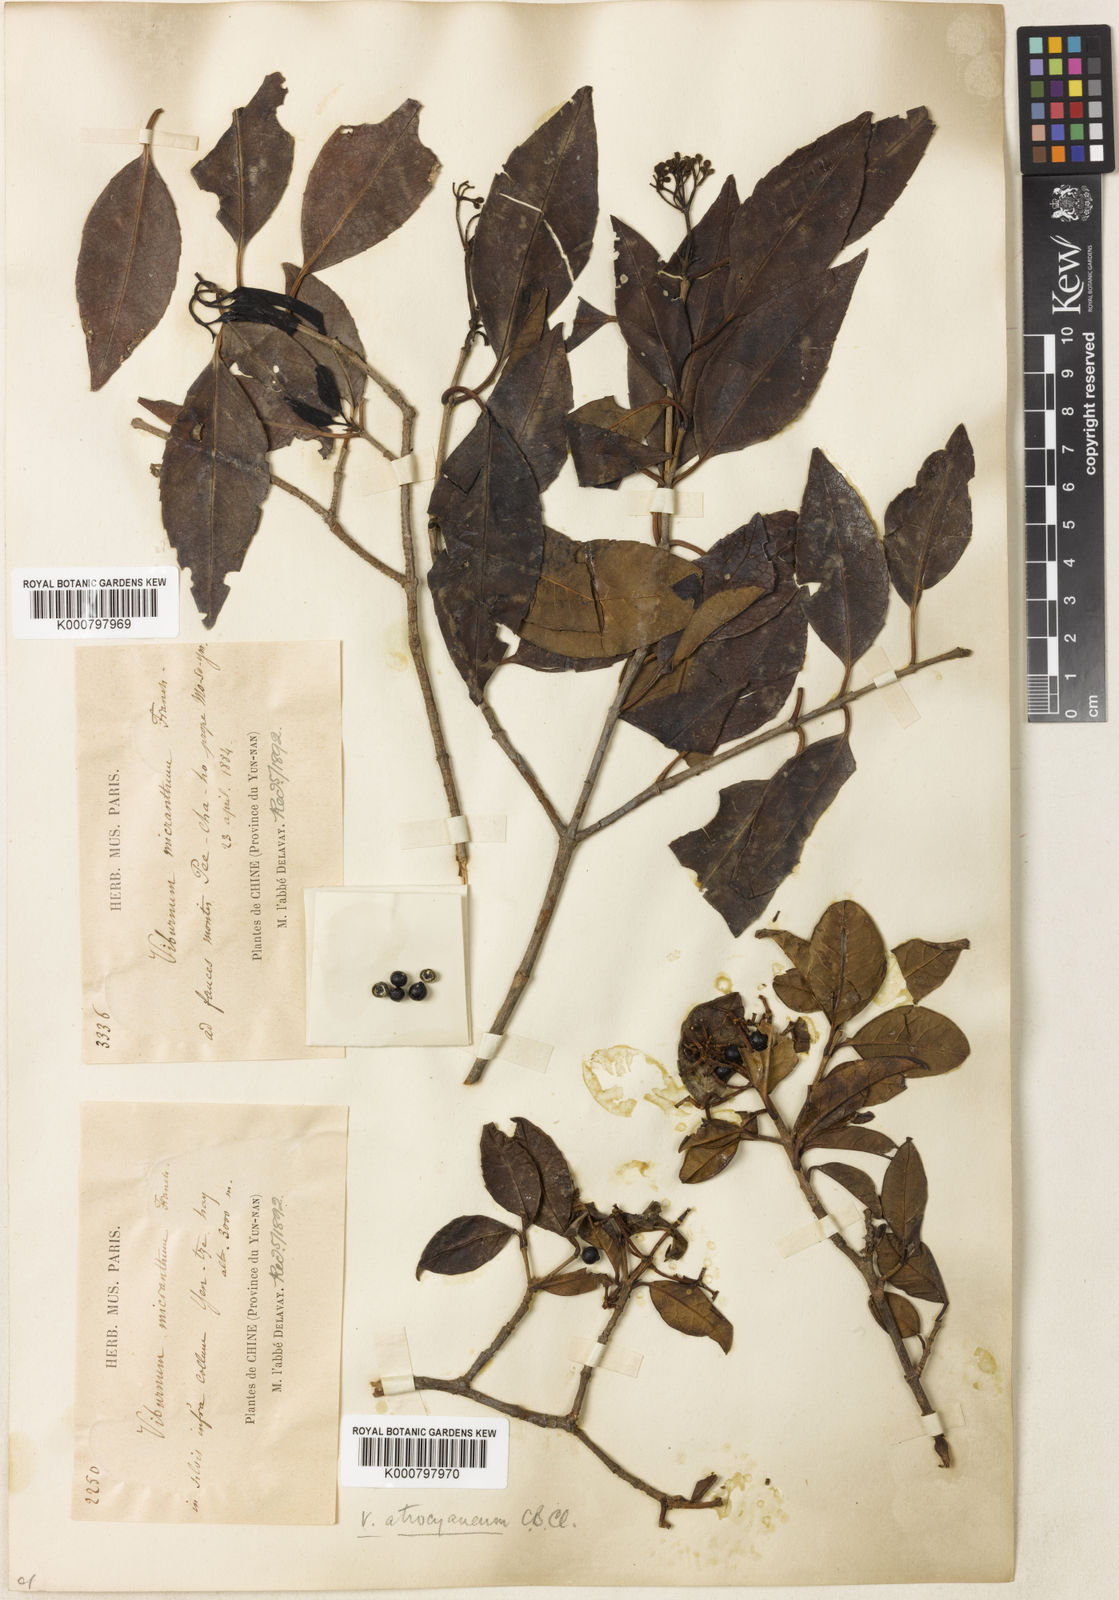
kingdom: Plantae
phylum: Tracheophyta
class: Magnoliopsida
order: Dipsacales
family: Viburnaceae
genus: Viburnum
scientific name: Viburnum atrocyaneum
